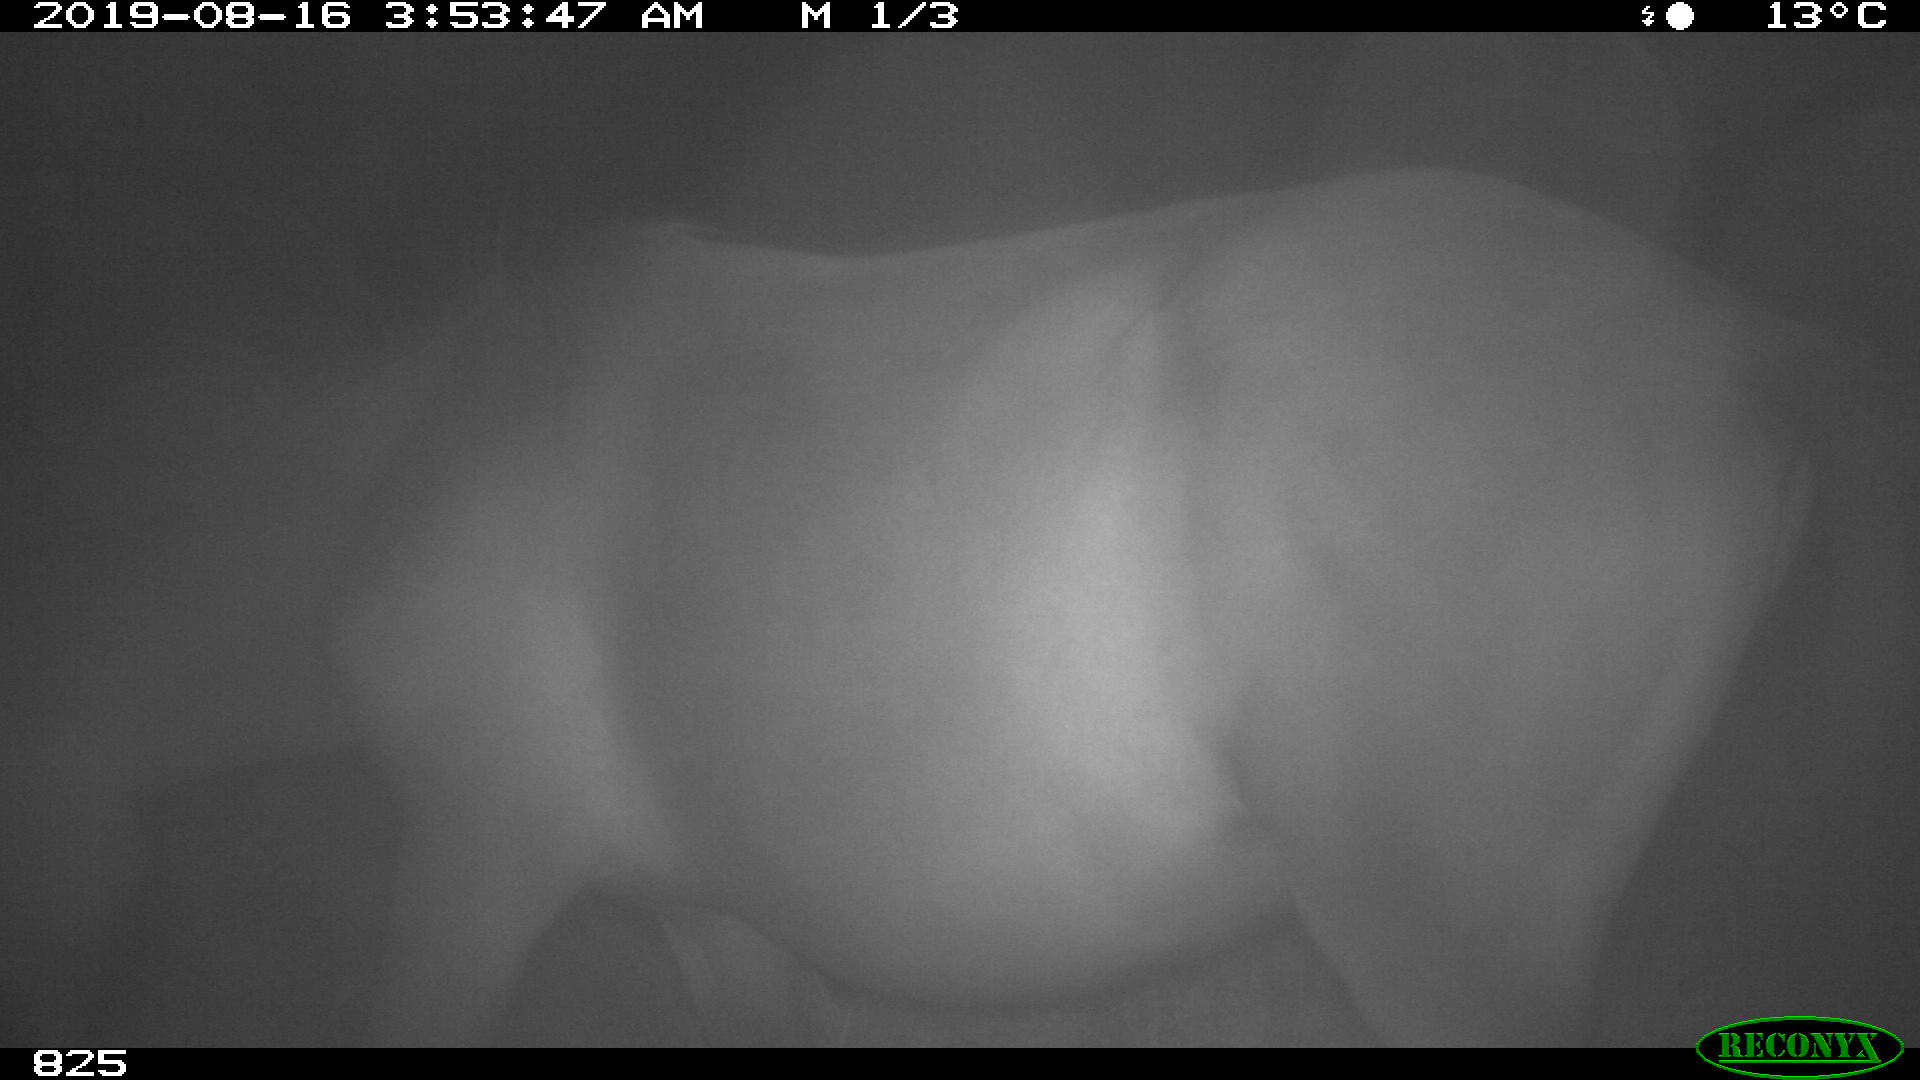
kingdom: Animalia
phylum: Chordata
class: Mammalia
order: Perissodactyla
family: Equidae
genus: Equus
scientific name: Equus caballus
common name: Horse
